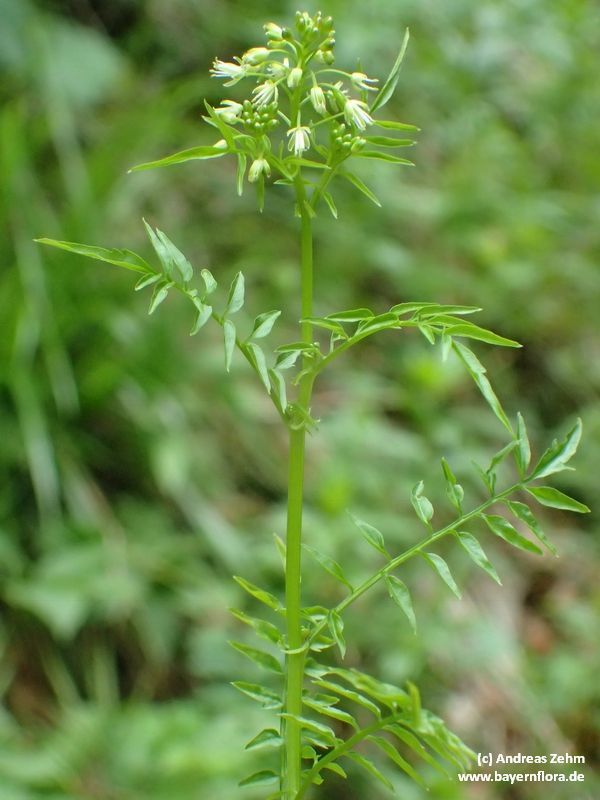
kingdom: Plantae
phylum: Tracheophyta
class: Magnoliopsida
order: Brassicales
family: Brassicaceae
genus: Cardamine
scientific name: Cardamine impatiens
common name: Narrow-leaved bitter-cress
